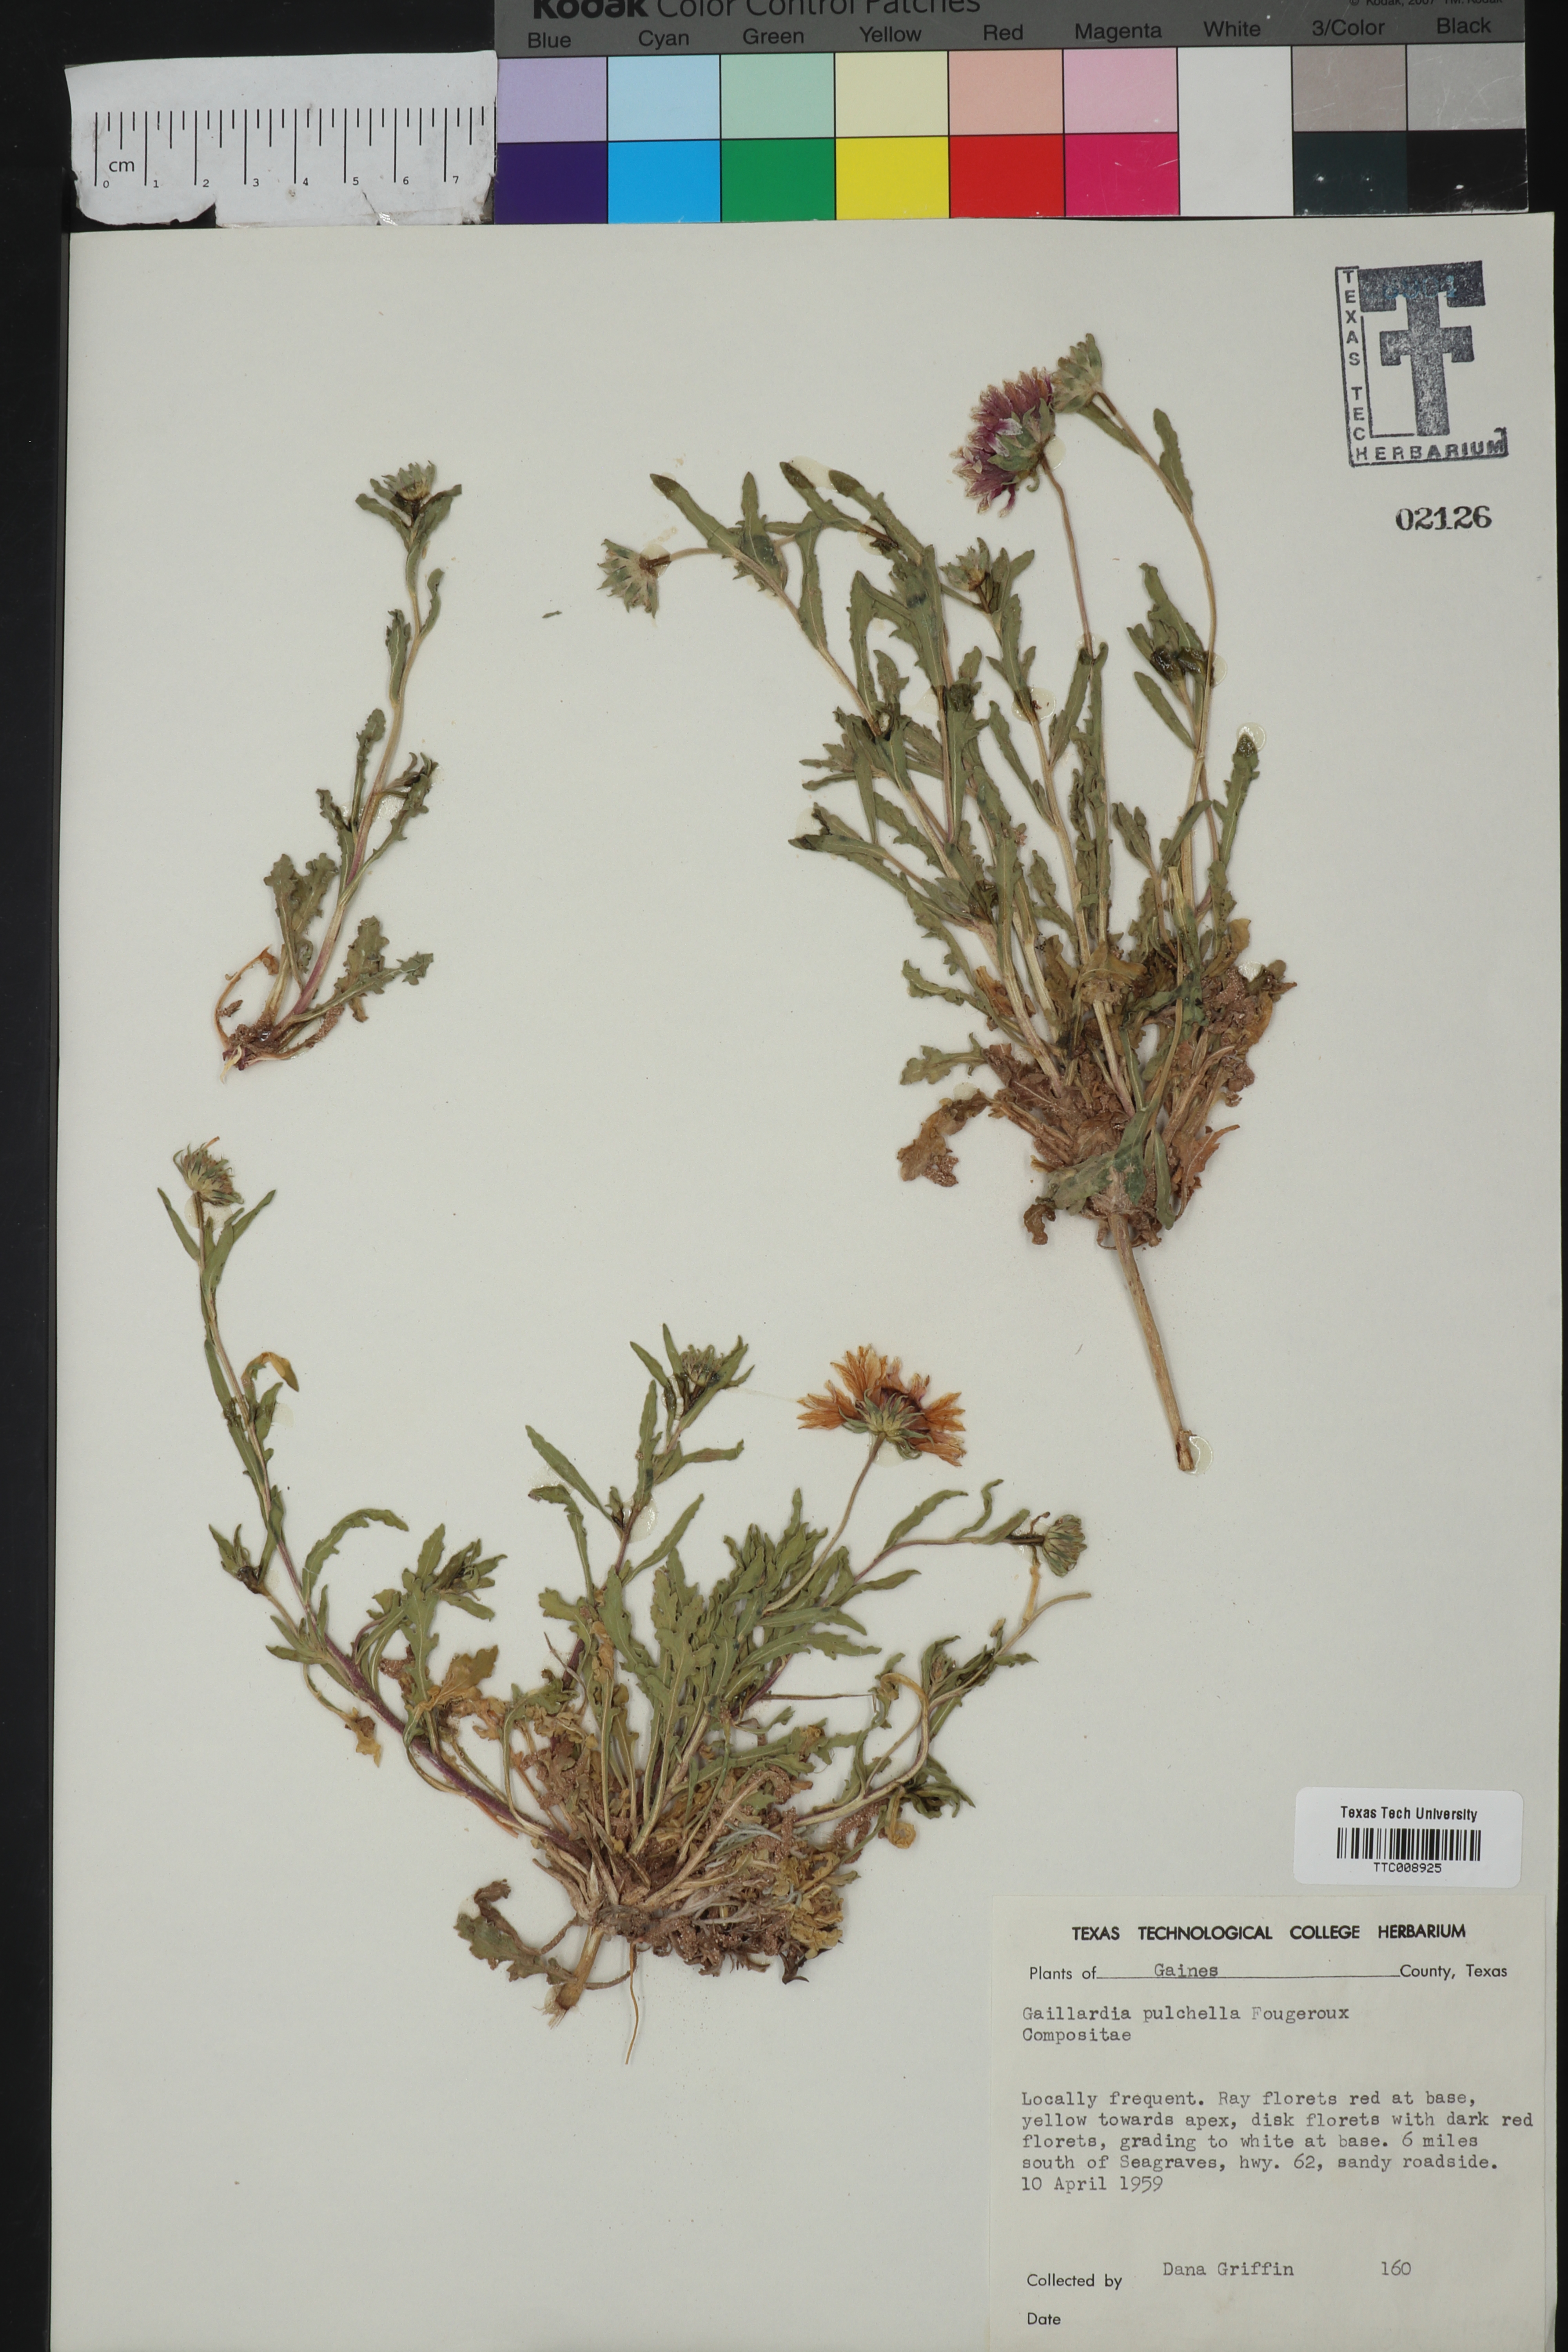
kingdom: Plantae
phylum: Tracheophyta
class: Magnoliopsida
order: Asterales
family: Asteraceae
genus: Gaillardia
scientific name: Gaillardia pulchella
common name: Firewheel
